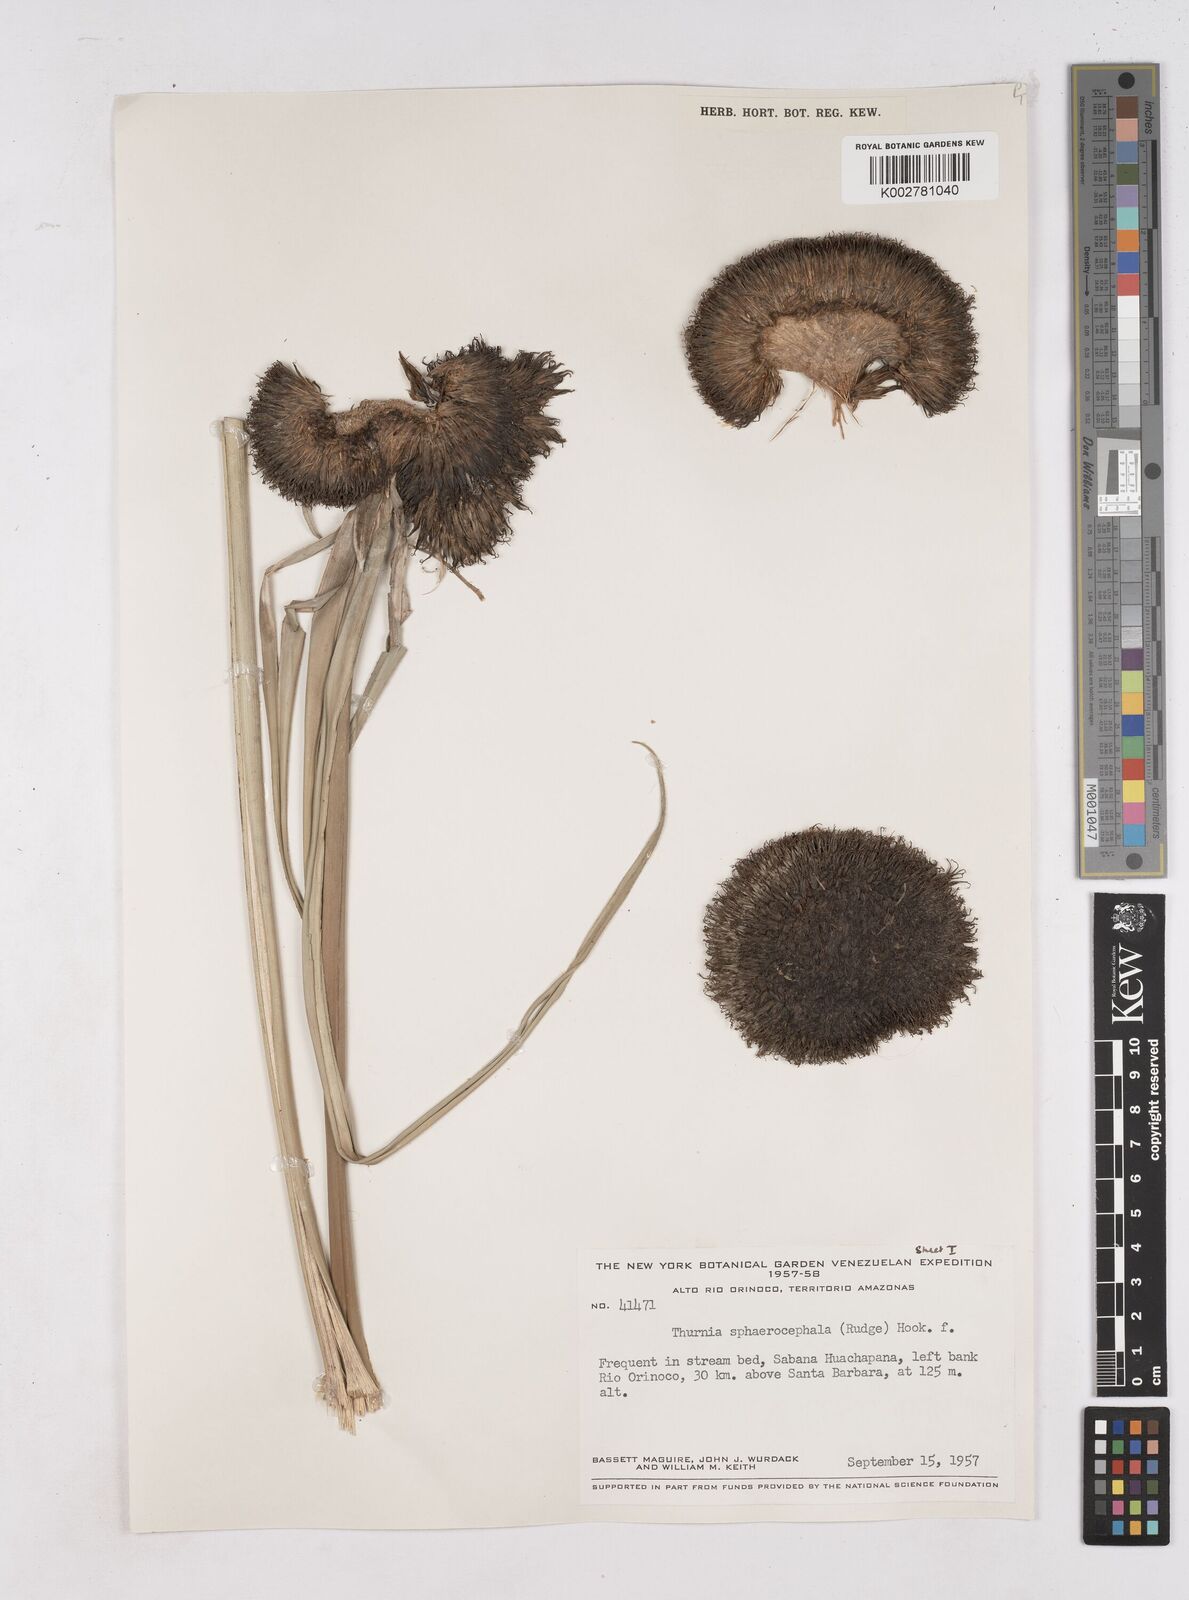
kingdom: Plantae
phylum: Tracheophyta
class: Liliopsida
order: Poales
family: Thurniaceae
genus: Thurnia
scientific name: Thurnia sphaerocephala
